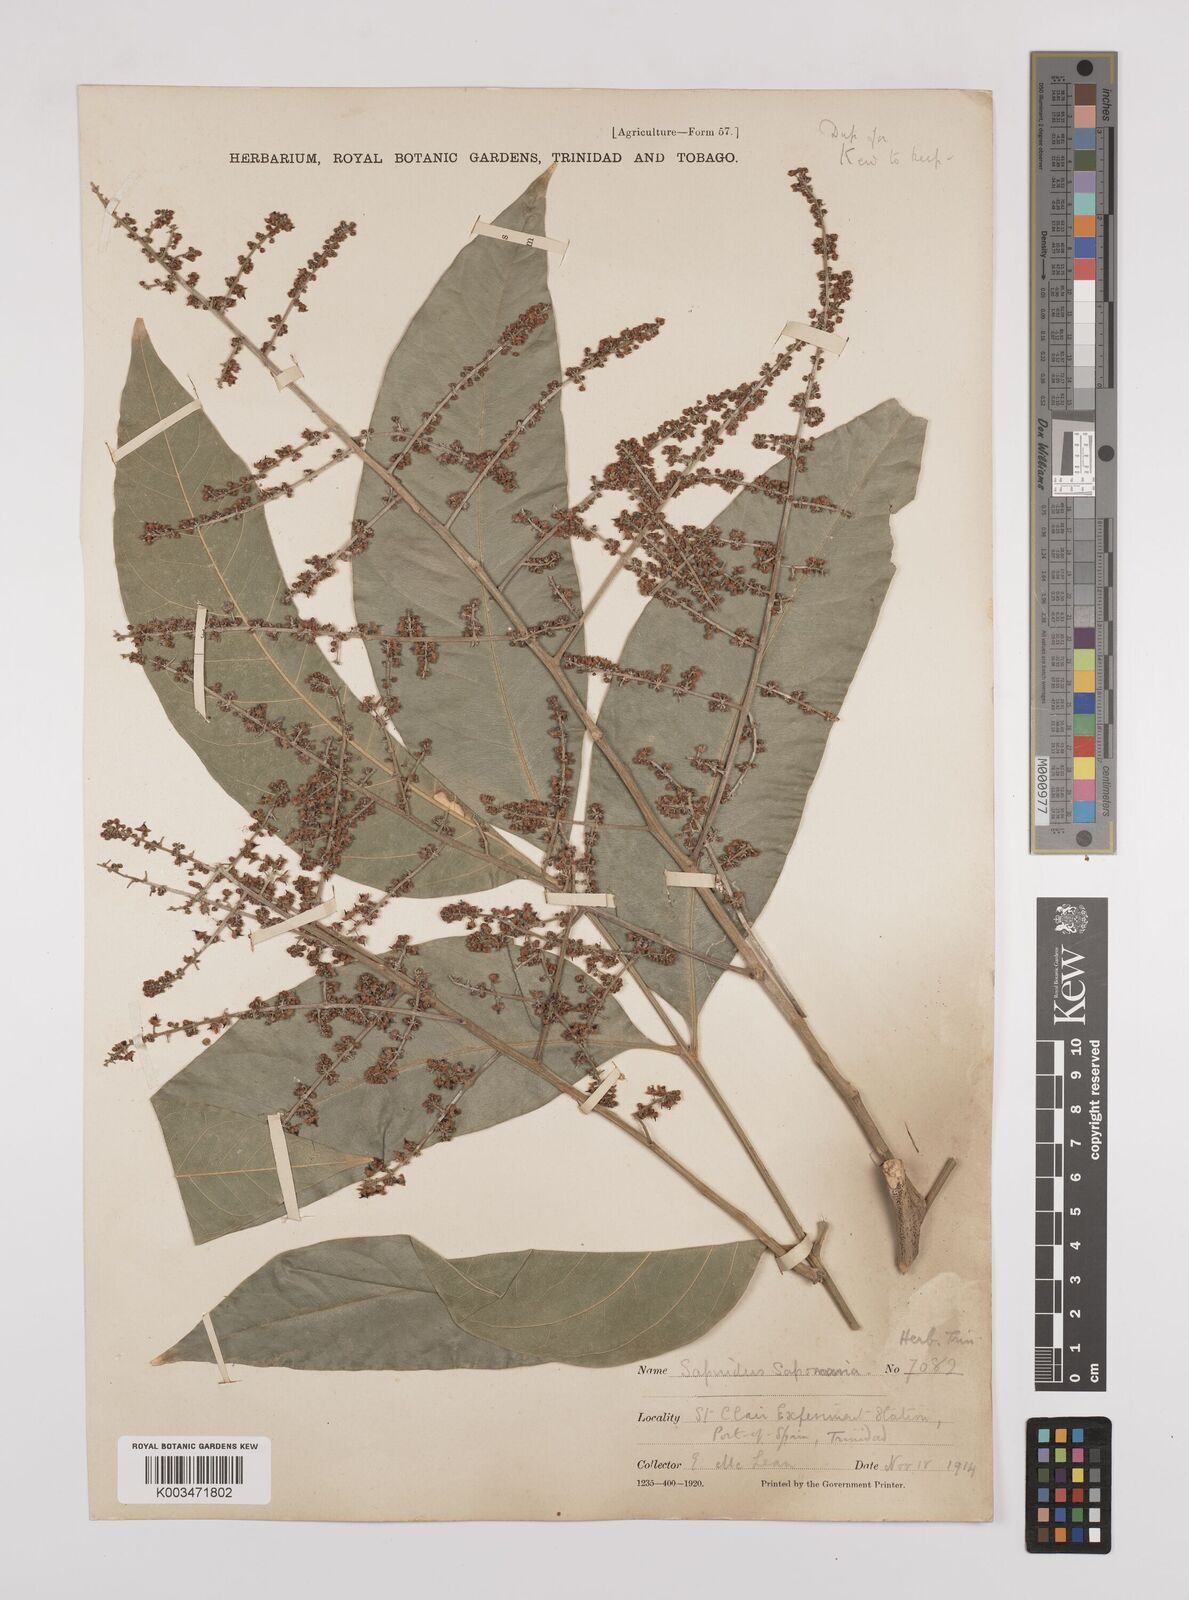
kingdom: Plantae
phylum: Tracheophyta
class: Magnoliopsida
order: Sapindales
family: Sapindaceae
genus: Sapindus
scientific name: Sapindus saponaria
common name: Wingleaf soapberry
